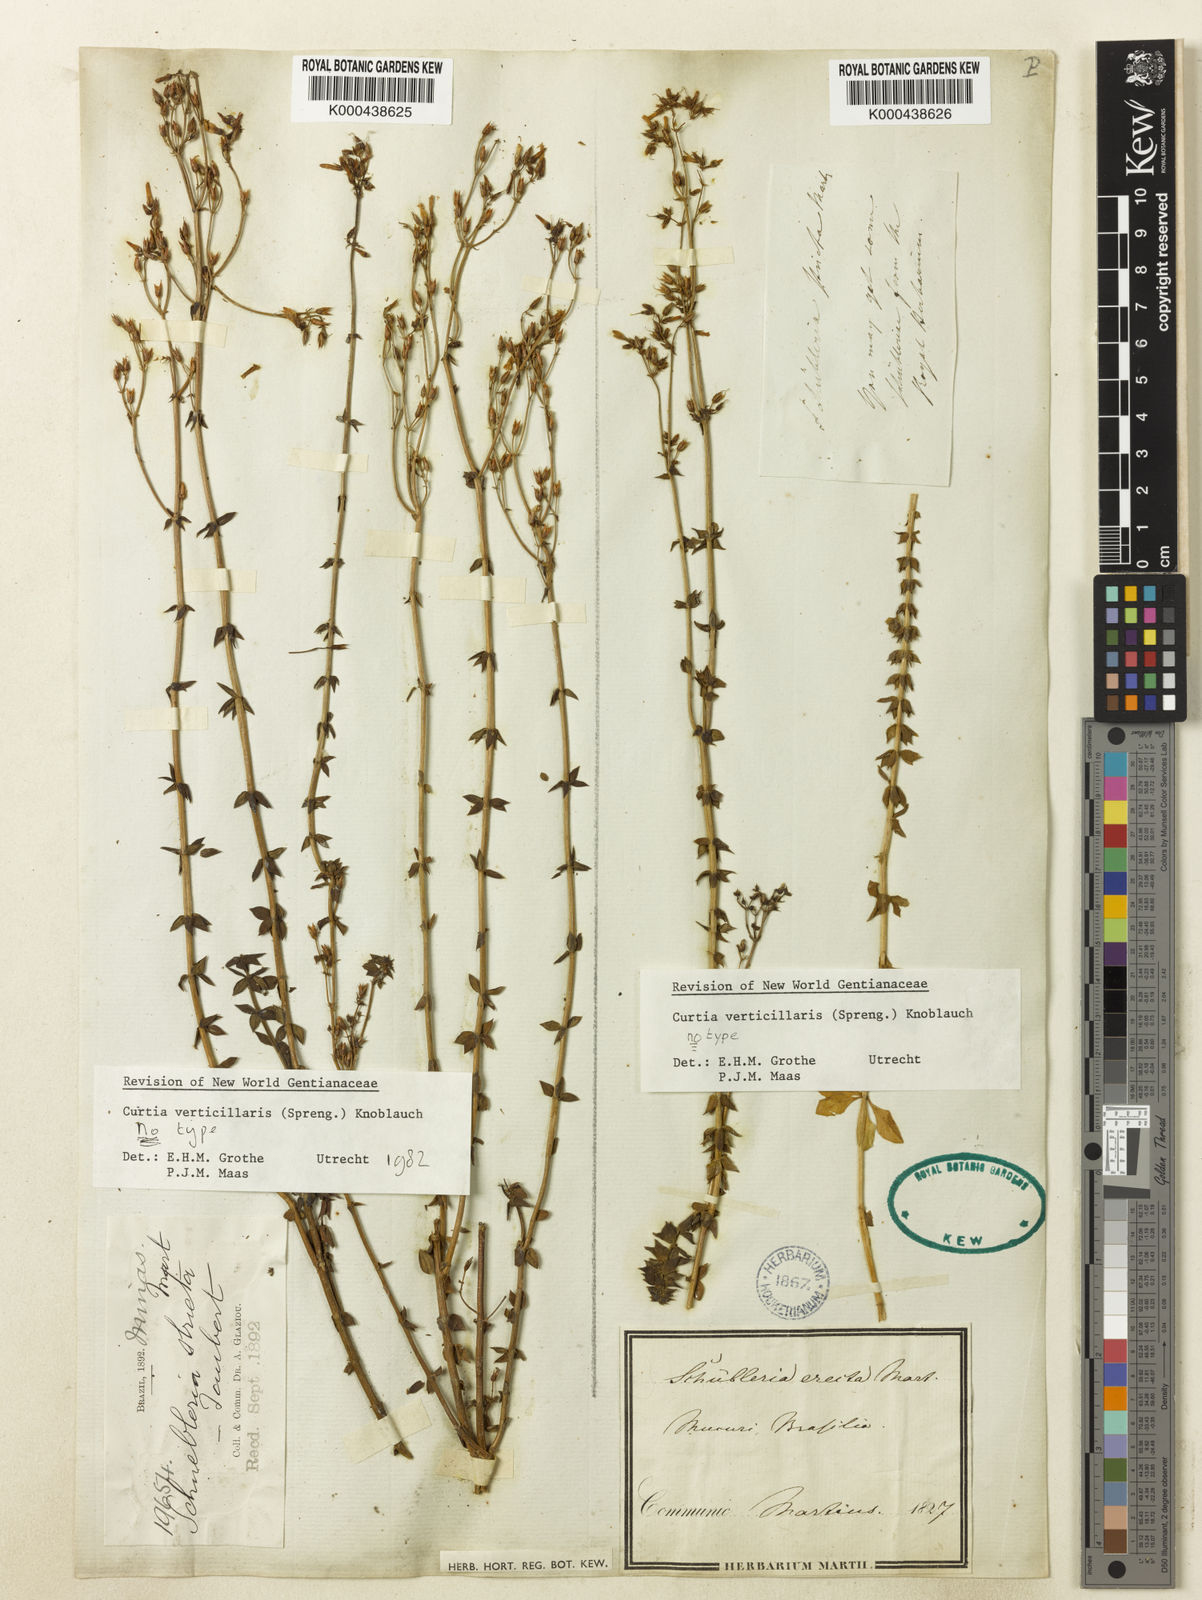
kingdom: Plantae
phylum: Tracheophyta
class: Magnoliopsida
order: Gentianales
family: Gentianaceae
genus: Curtia
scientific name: Curtia verticillaris
